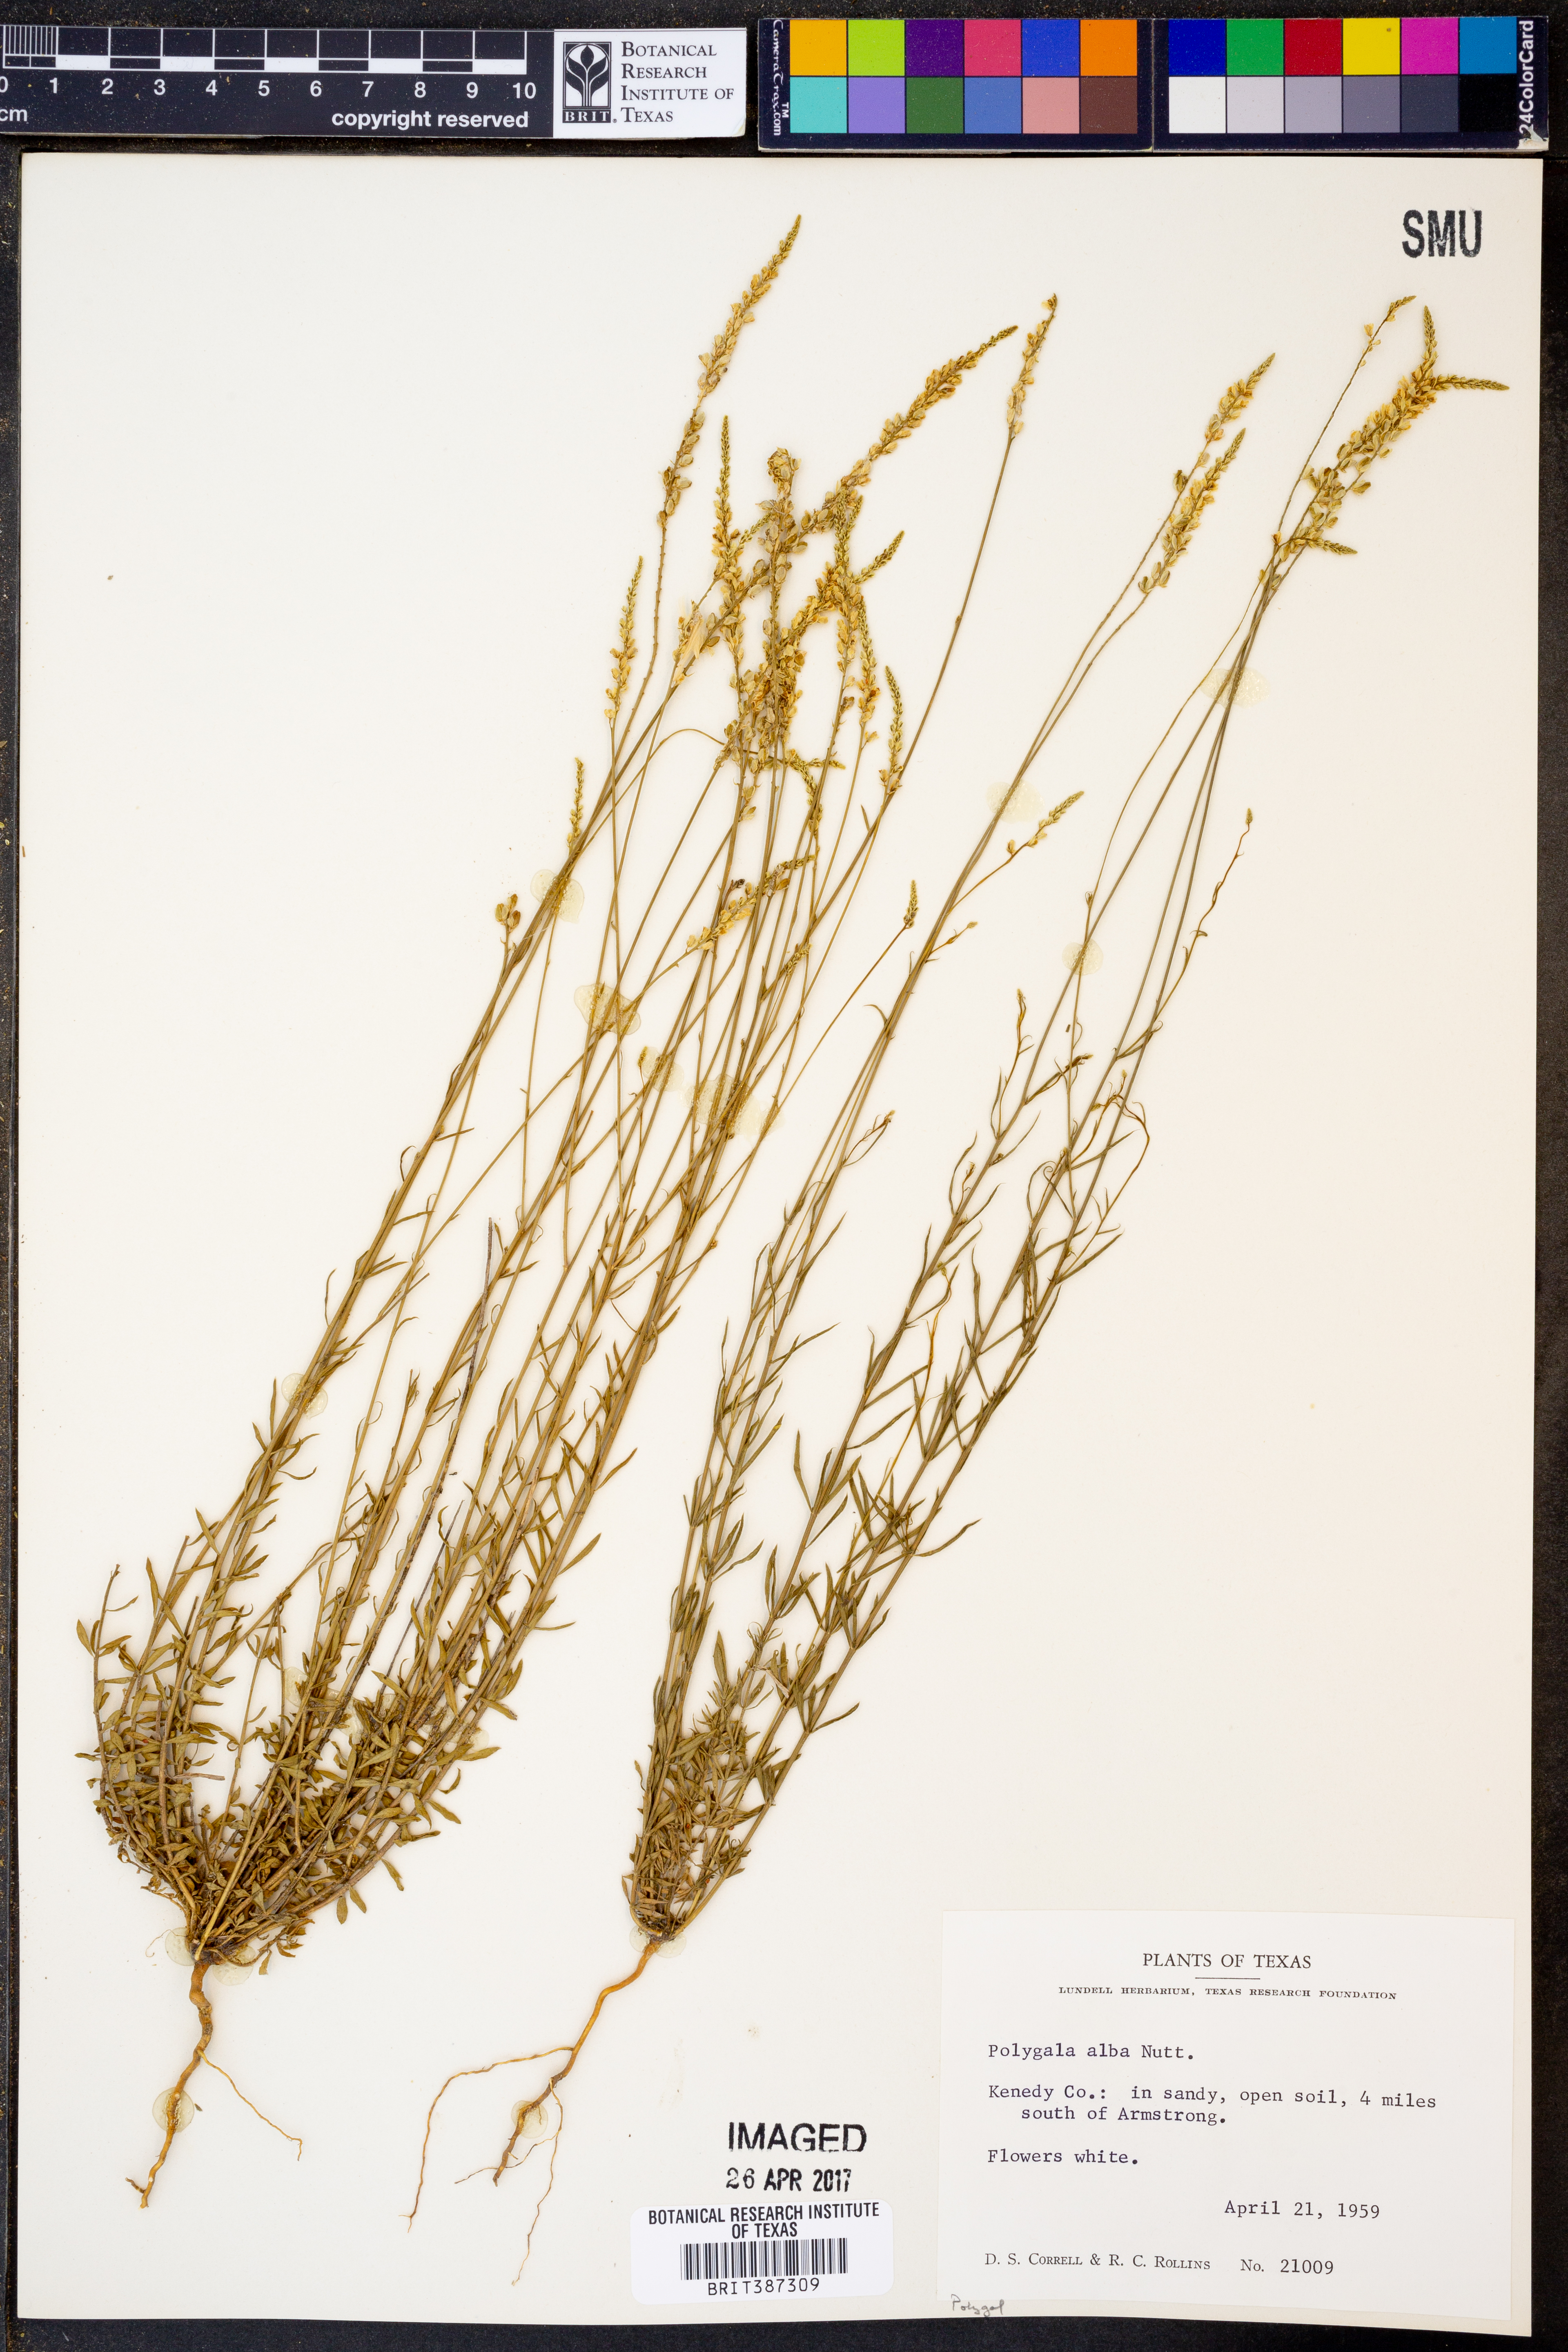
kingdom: Plantae
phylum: Tracheophyta
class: Magnoliopsida
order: Fabales
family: Polygalaceae
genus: Polygala
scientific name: Polygala alba
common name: White milkwort
